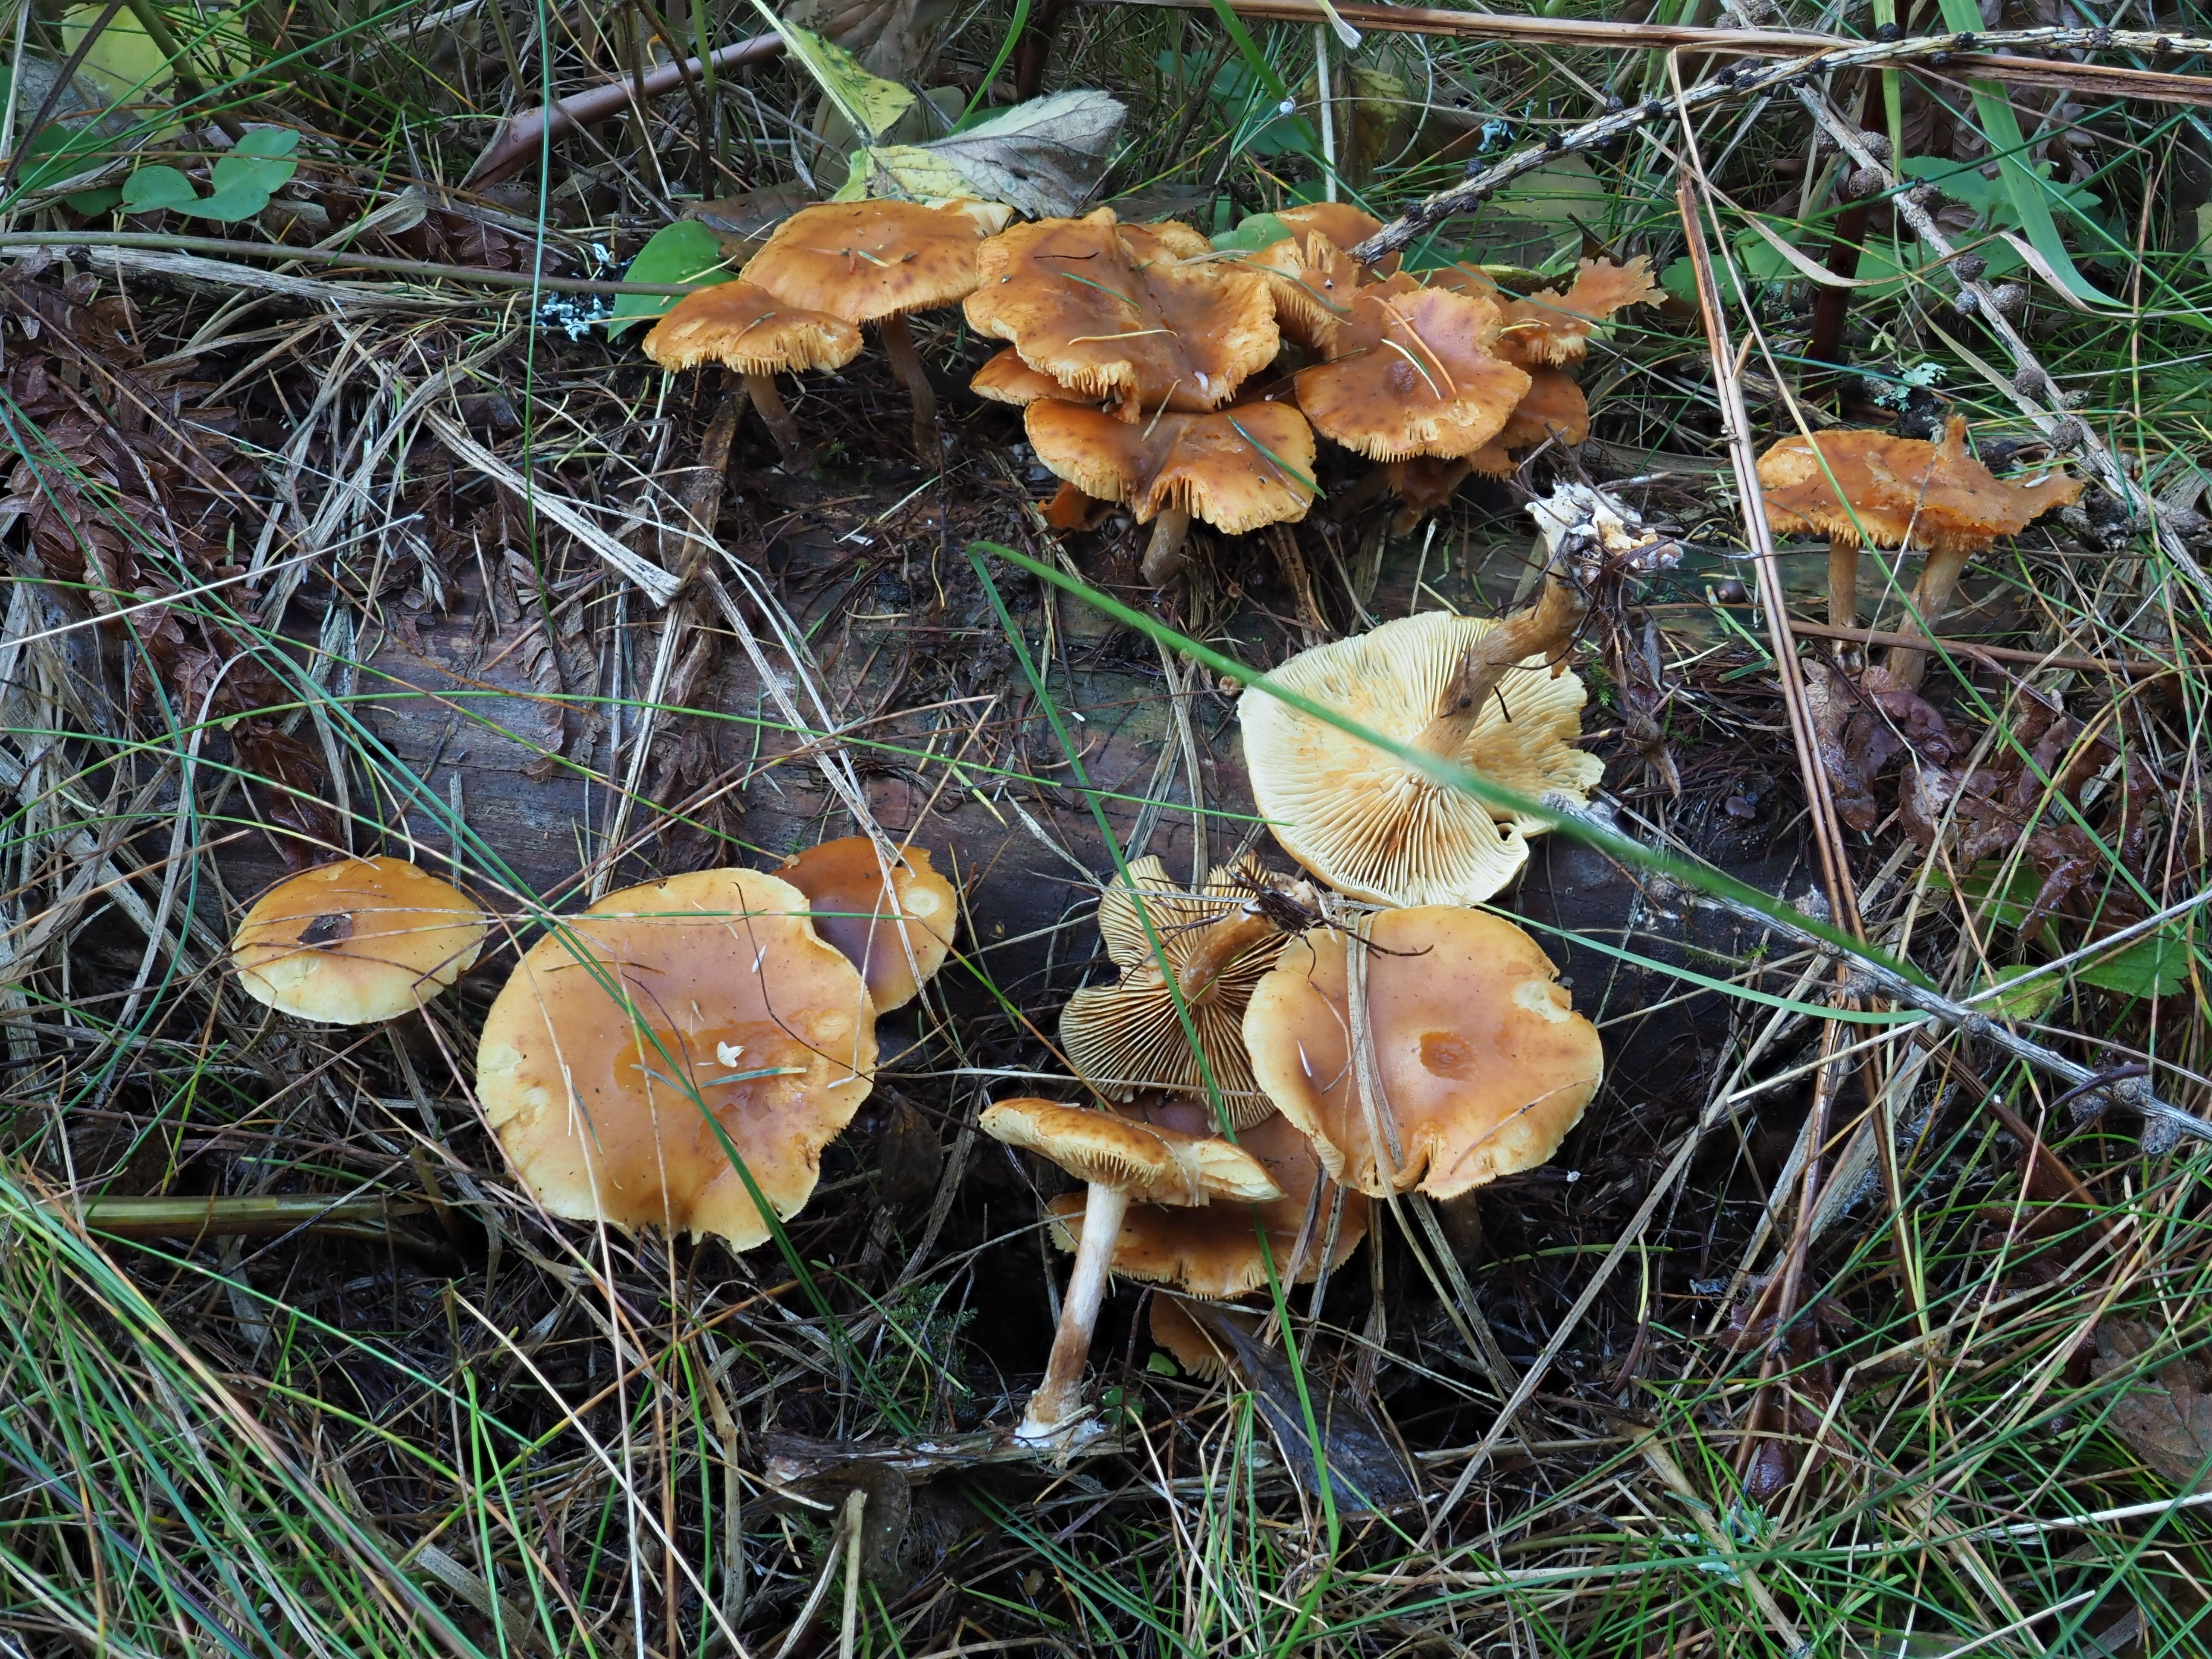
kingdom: Fungi
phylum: Basidiomycota
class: Agaricomycetes
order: Agaricales
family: Hymenogastraceae
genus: Gymnopilus
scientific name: Gymnopilus penetrans
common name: Common rustgill
